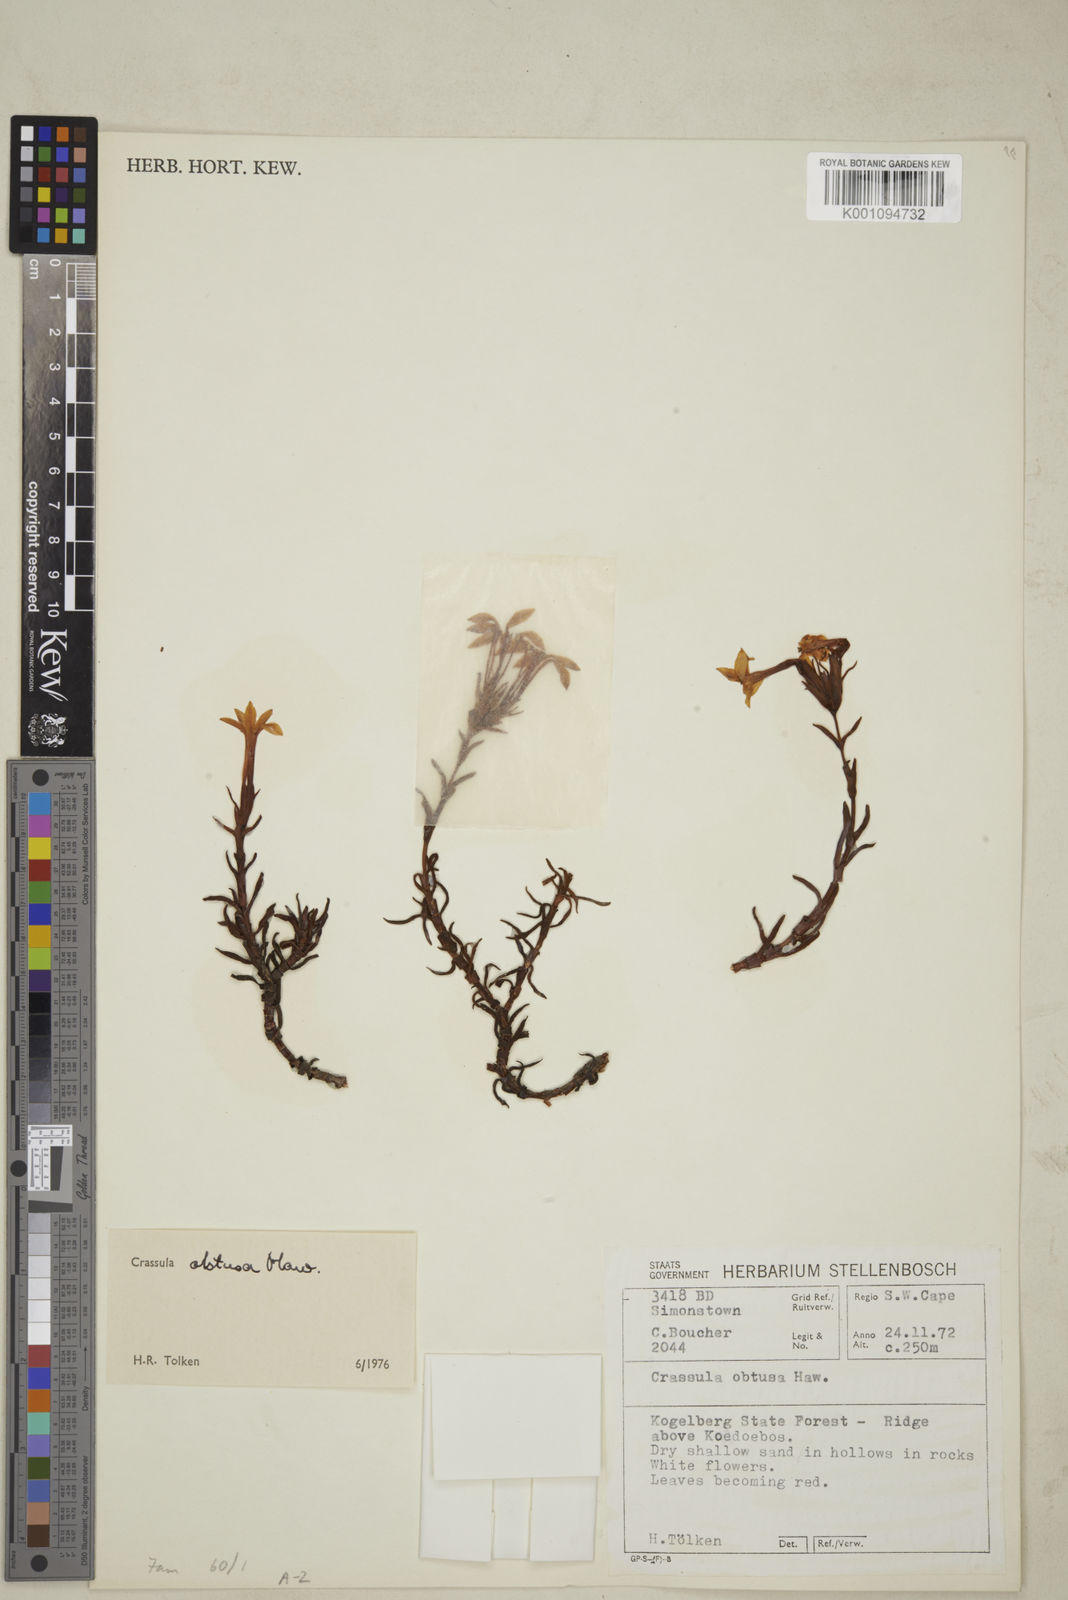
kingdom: Plantae
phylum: Tracheophyta
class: Magnoliopsida
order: Saxifragales
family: Crassulaceae
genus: Crassula
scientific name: Crassula obtusa
